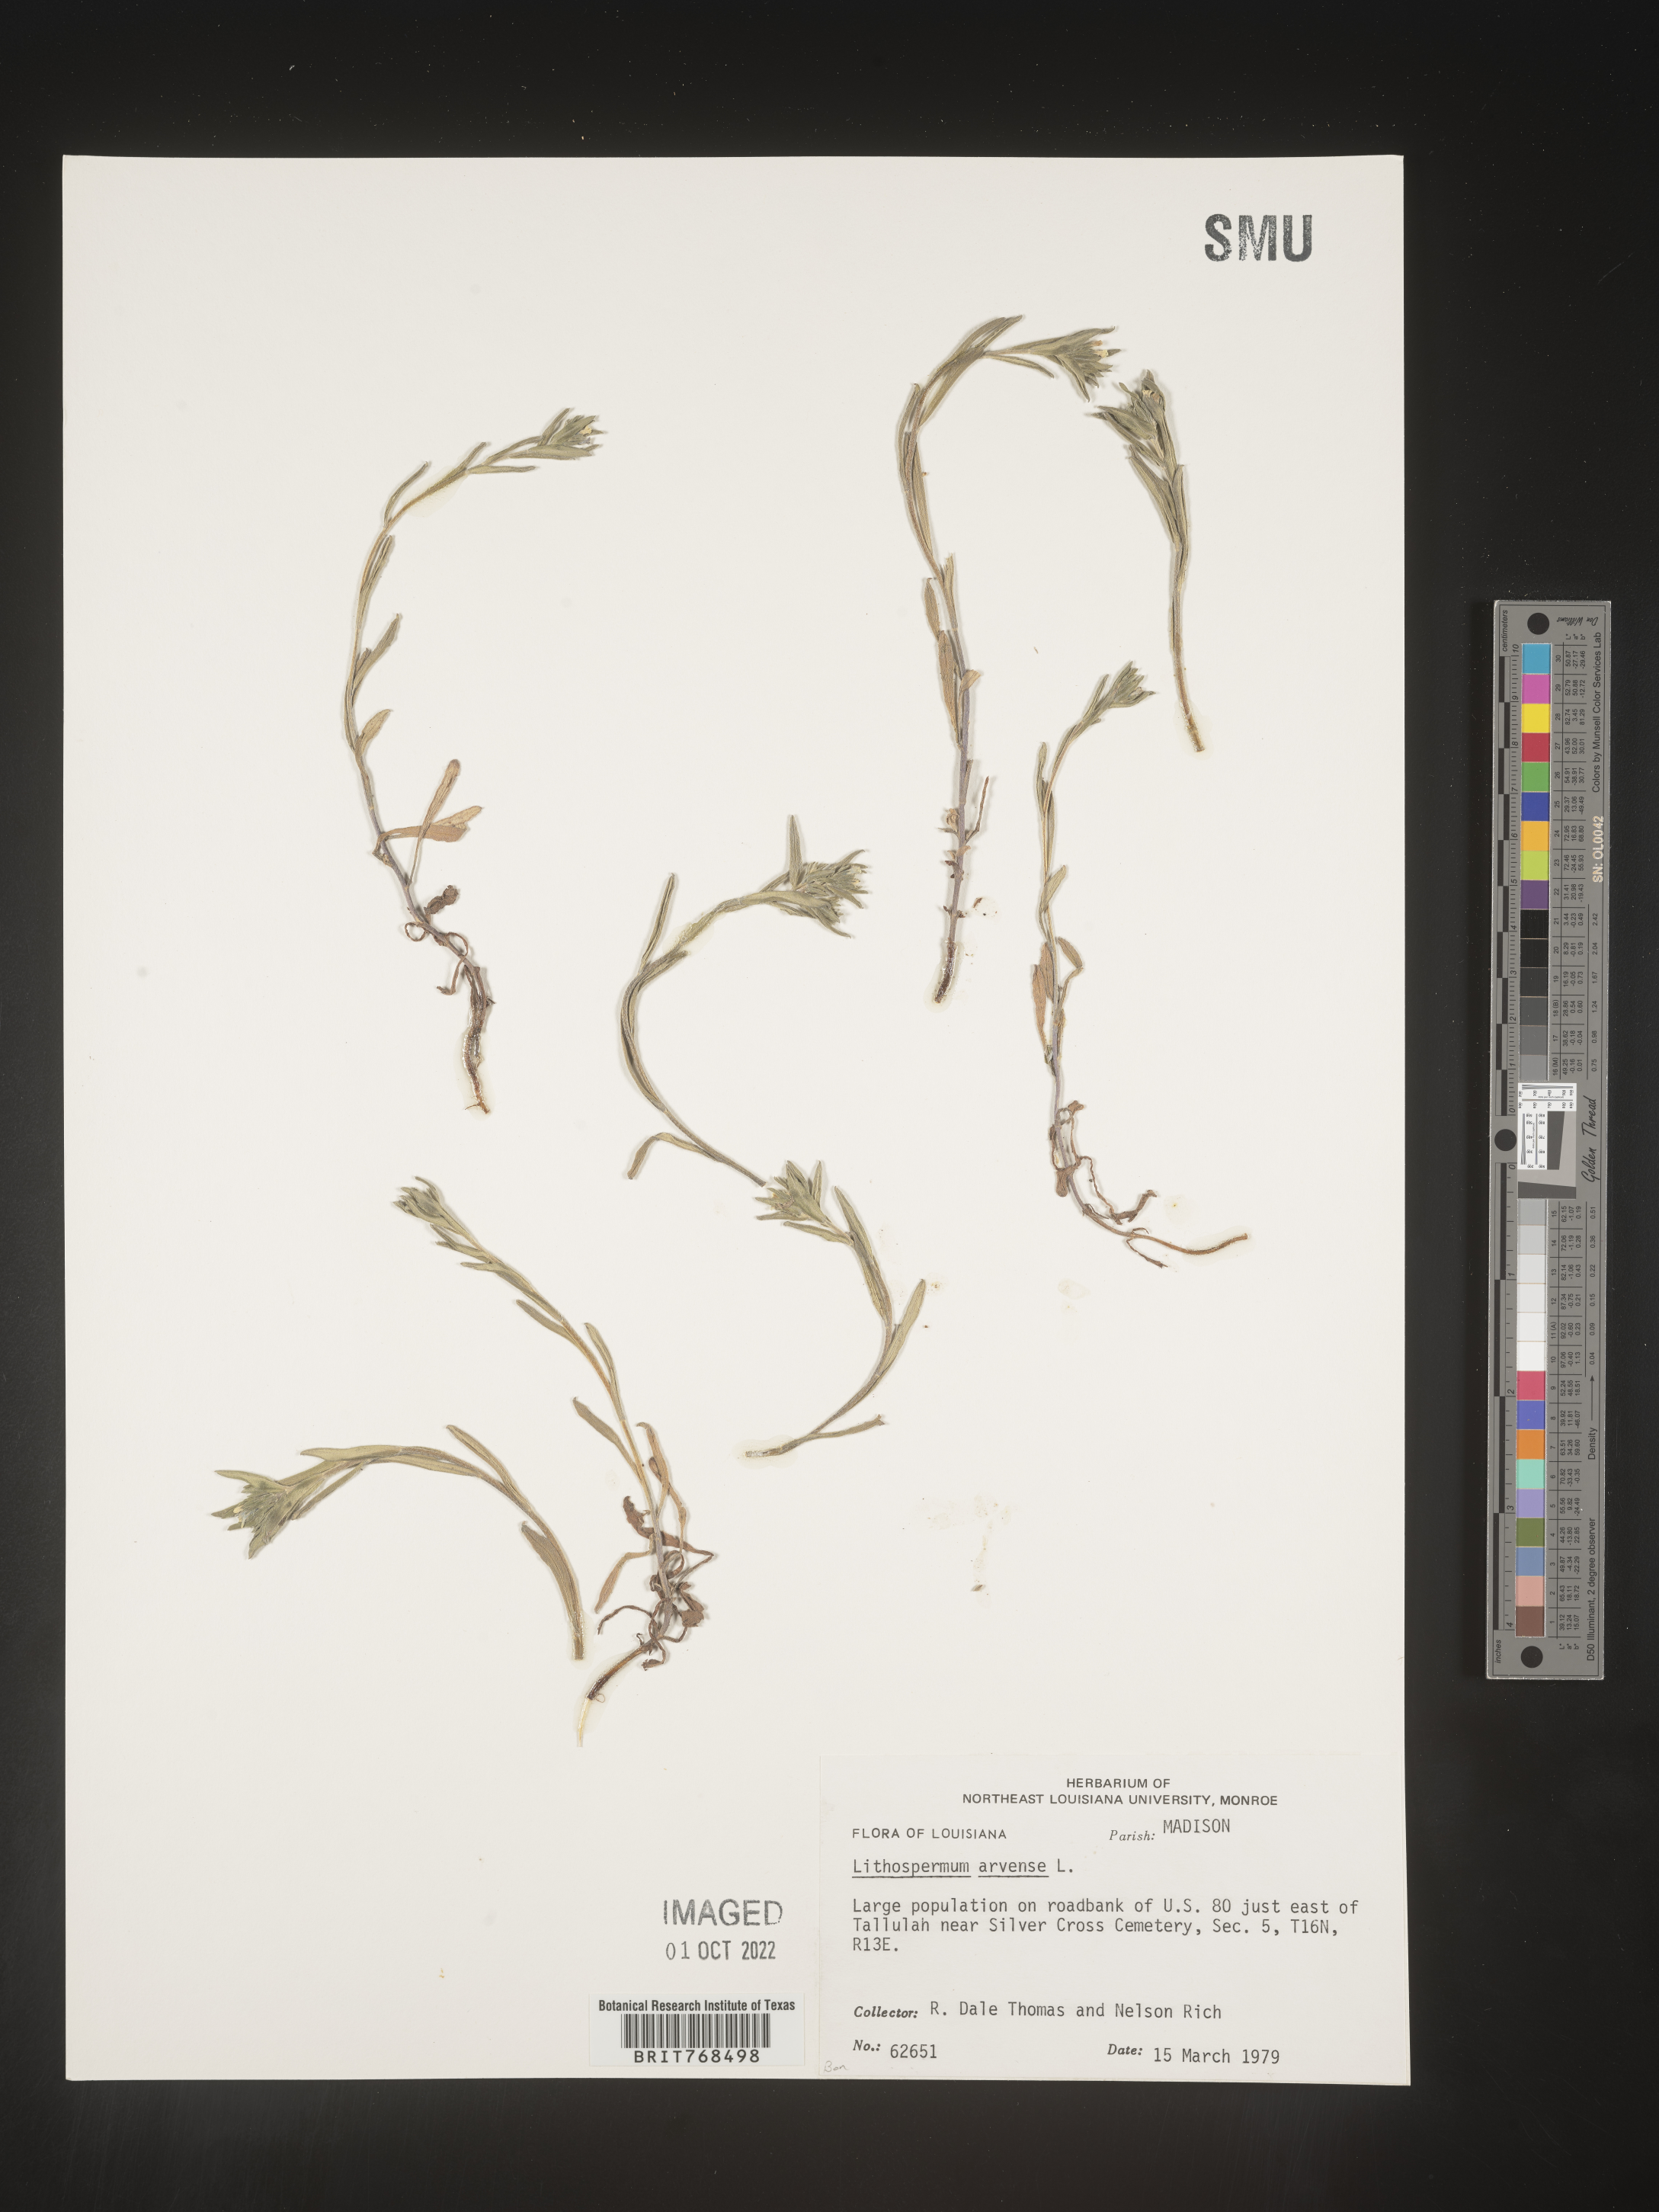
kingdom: Plantae
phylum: Tracheophyta
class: Magnoliopsida
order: Boraginales
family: Boraginaceae
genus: Lithospermum
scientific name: Lithospermum
